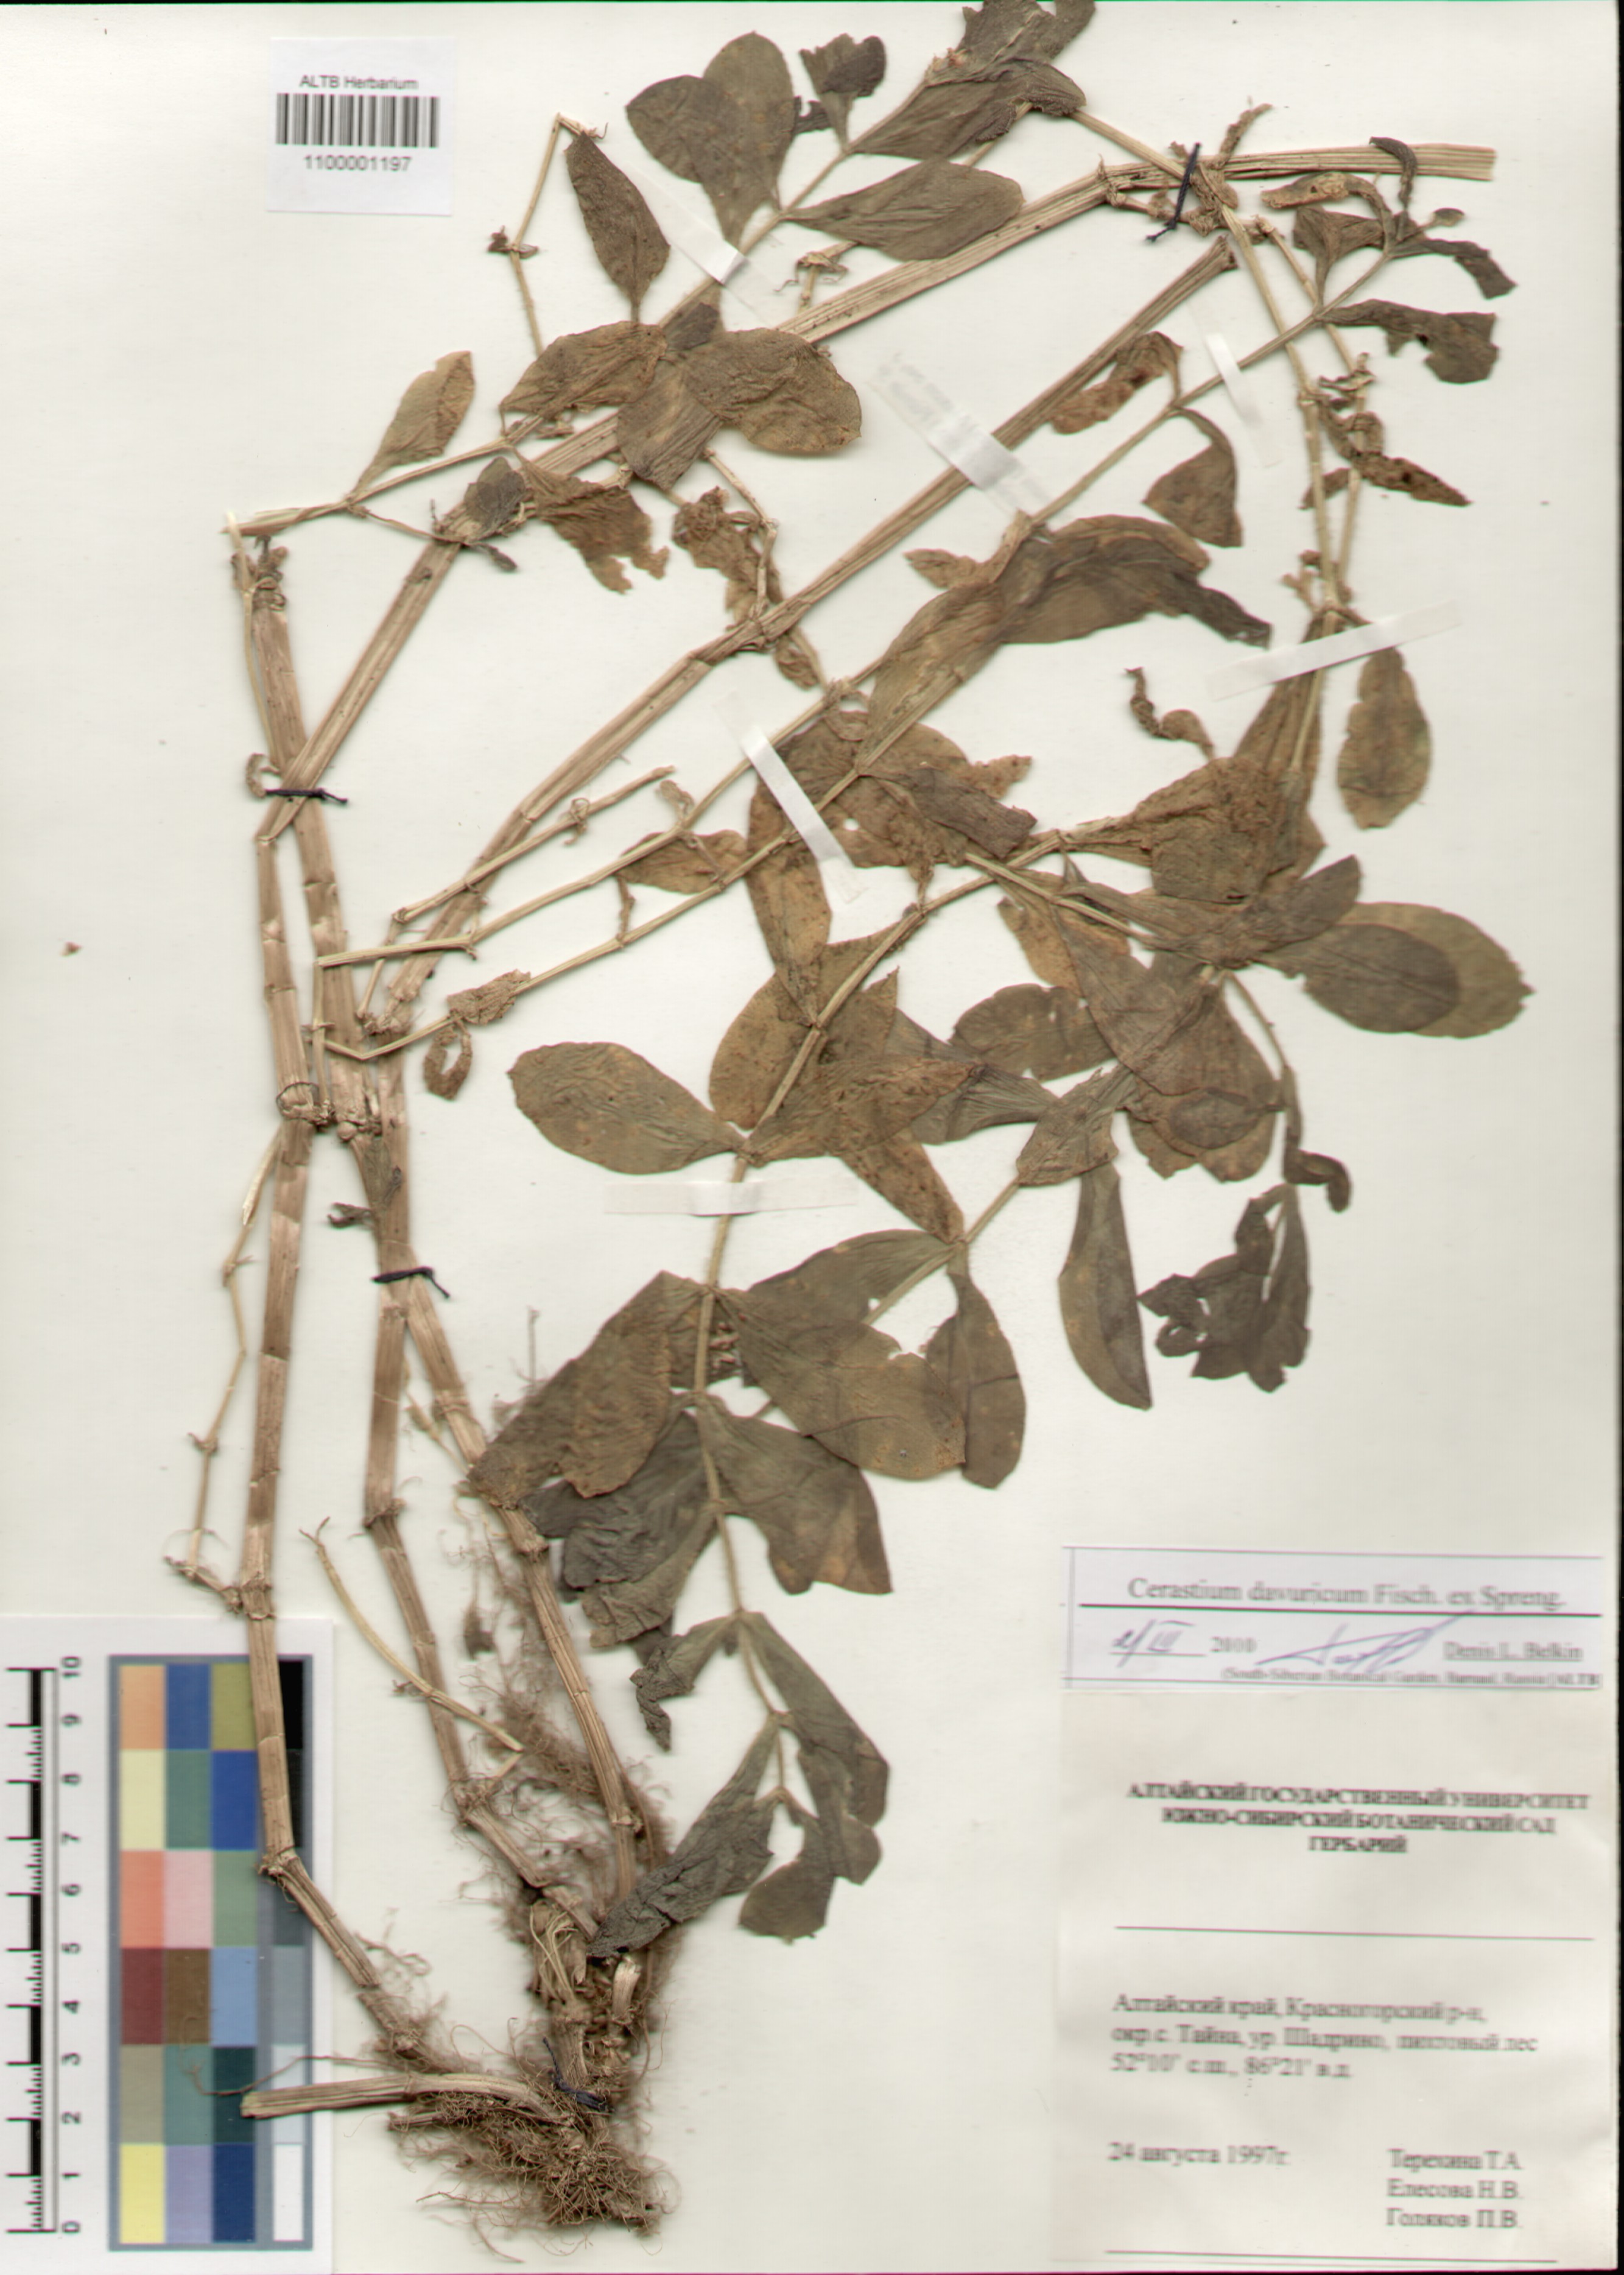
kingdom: Plantae
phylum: Tracheophyta
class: Magnoliopsida
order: Caryophyllales
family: Caryophyllaceae
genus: Dichodon
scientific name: Dichodon davuricum
